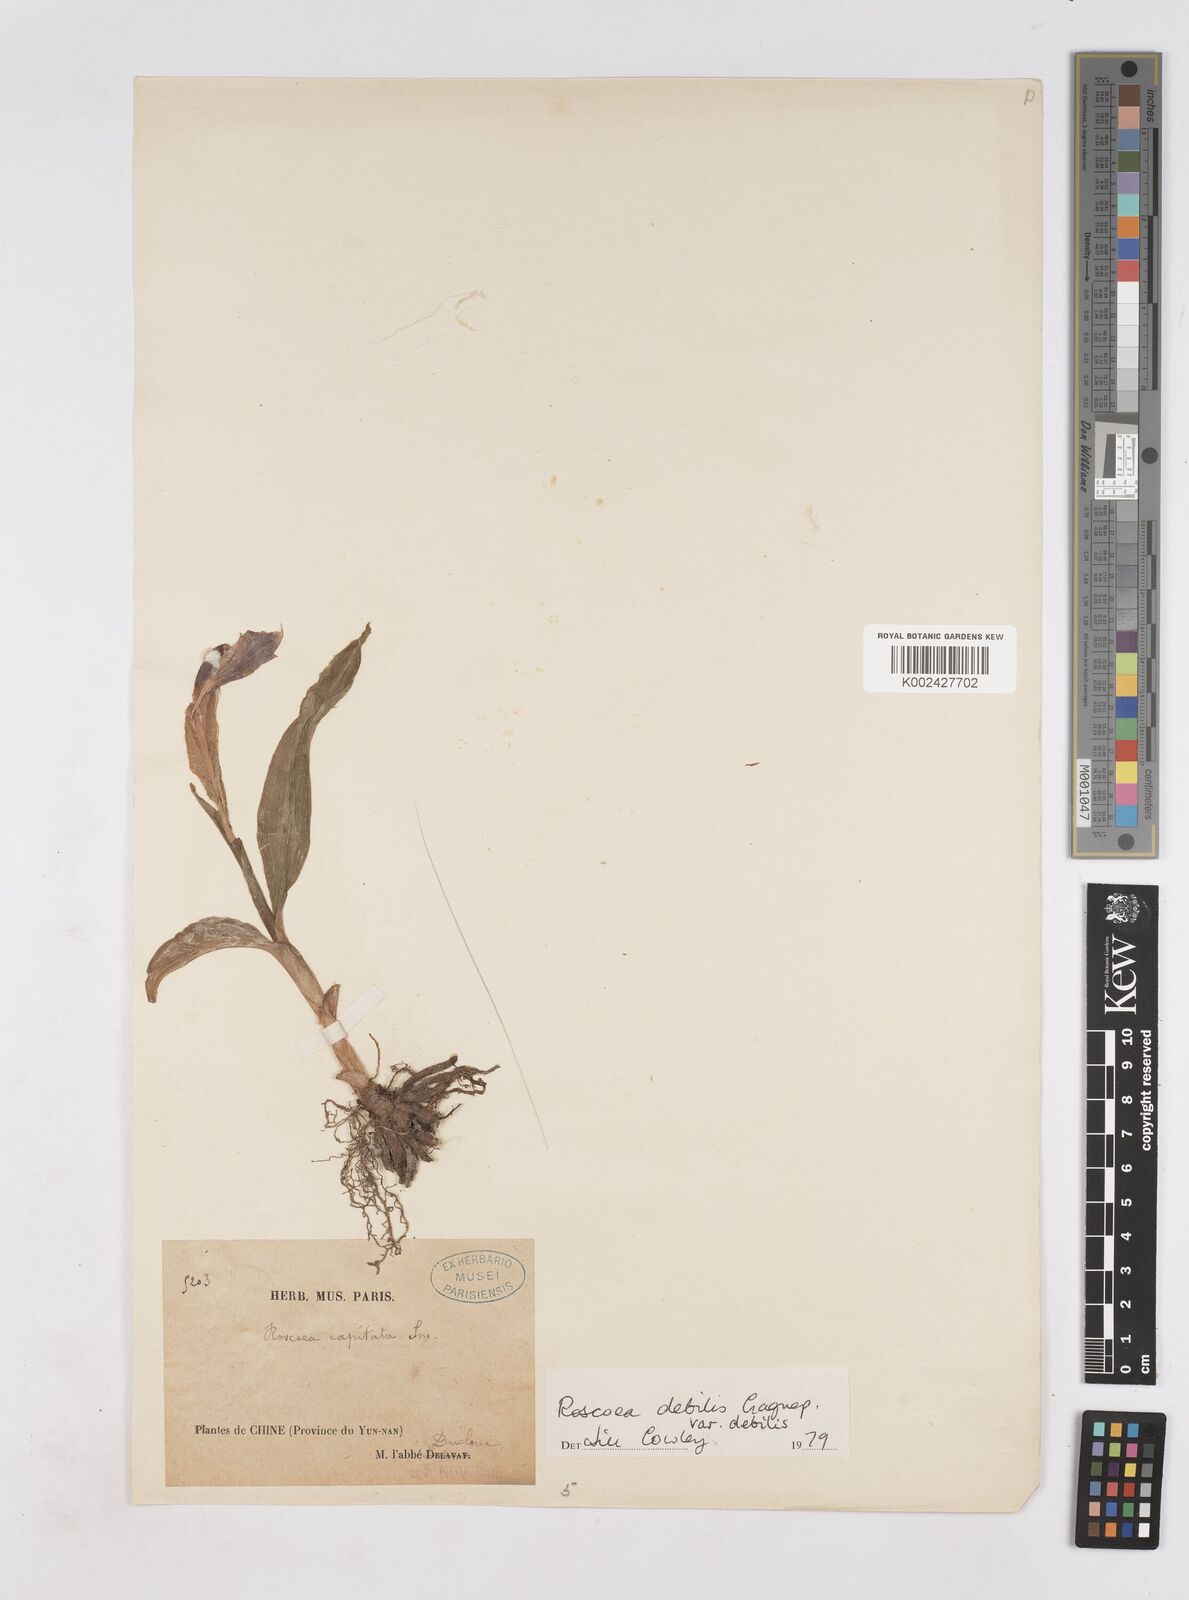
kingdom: Plantae
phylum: Tracheophyta
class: Liliopsida
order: Zingiberales
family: Zingiberaceae
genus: Roscoea
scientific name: Roscoea debilis
